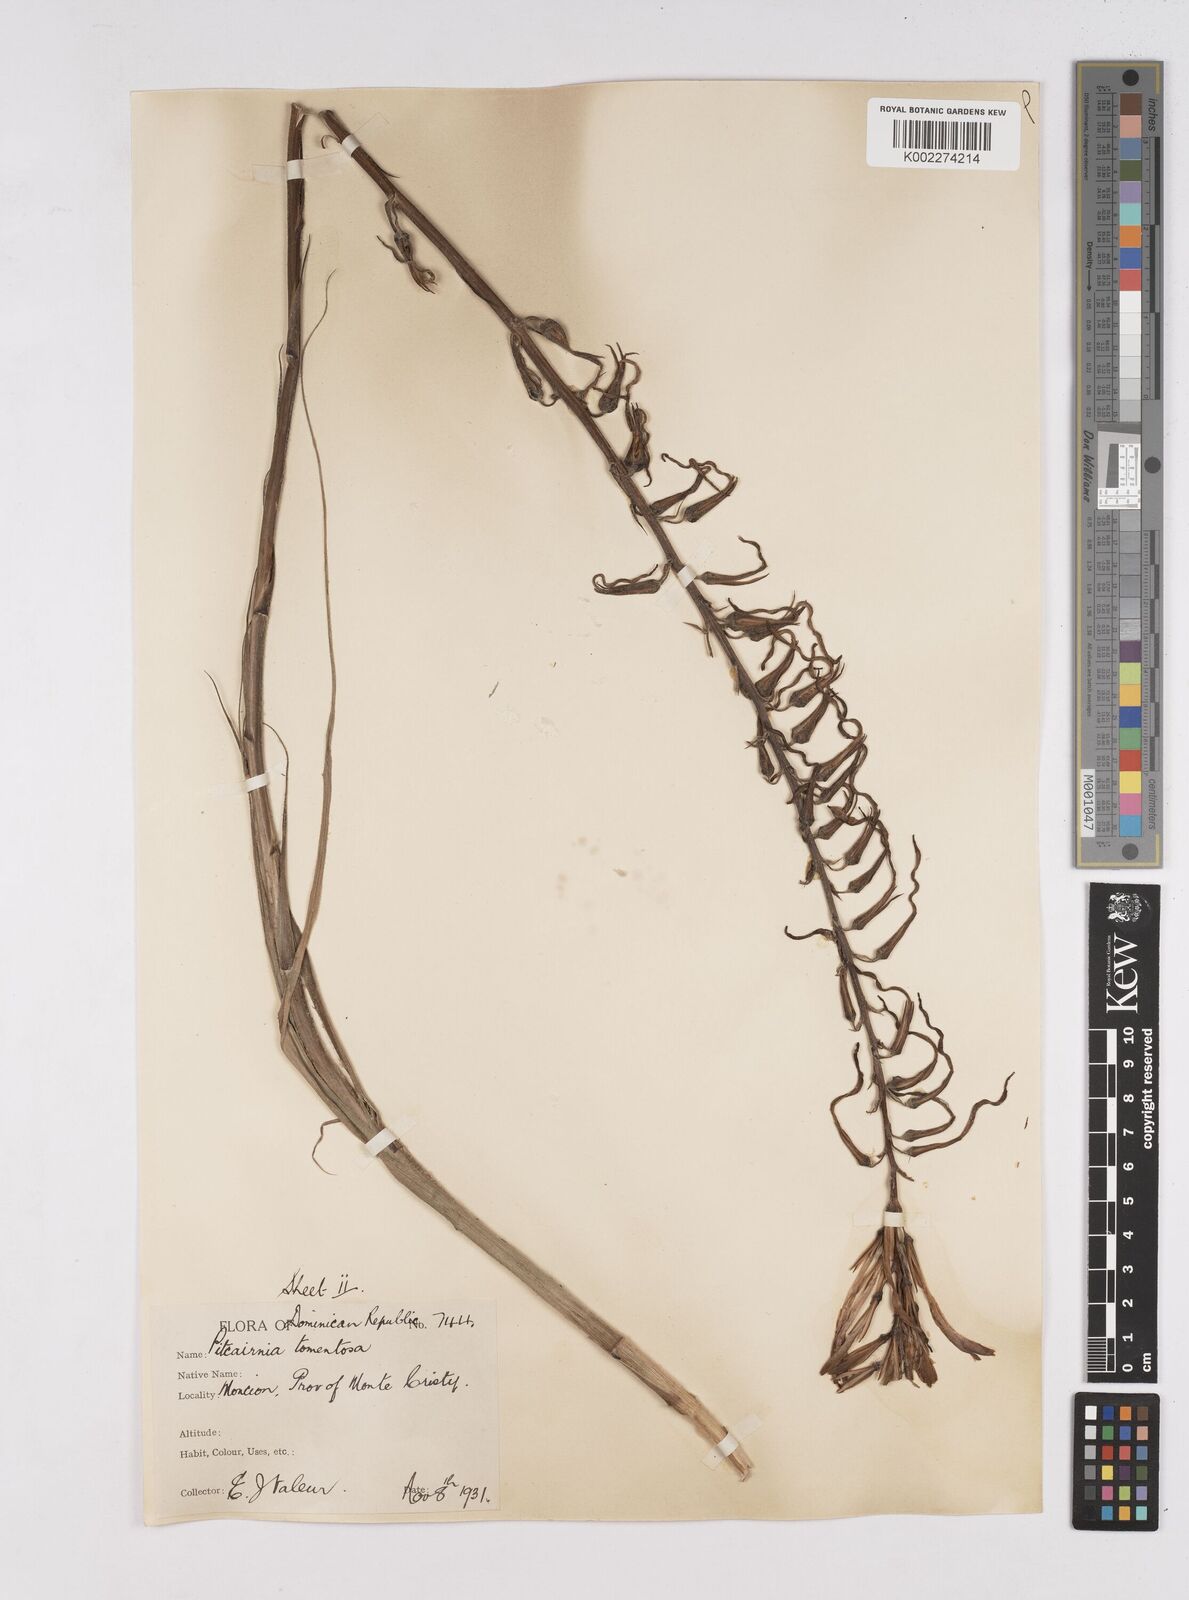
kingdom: Plantae
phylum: Tracheophyta
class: Liliopsida
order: Poales
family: Bromeliaceae
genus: Pitcairnia
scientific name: Pitcairnia fuertesii
